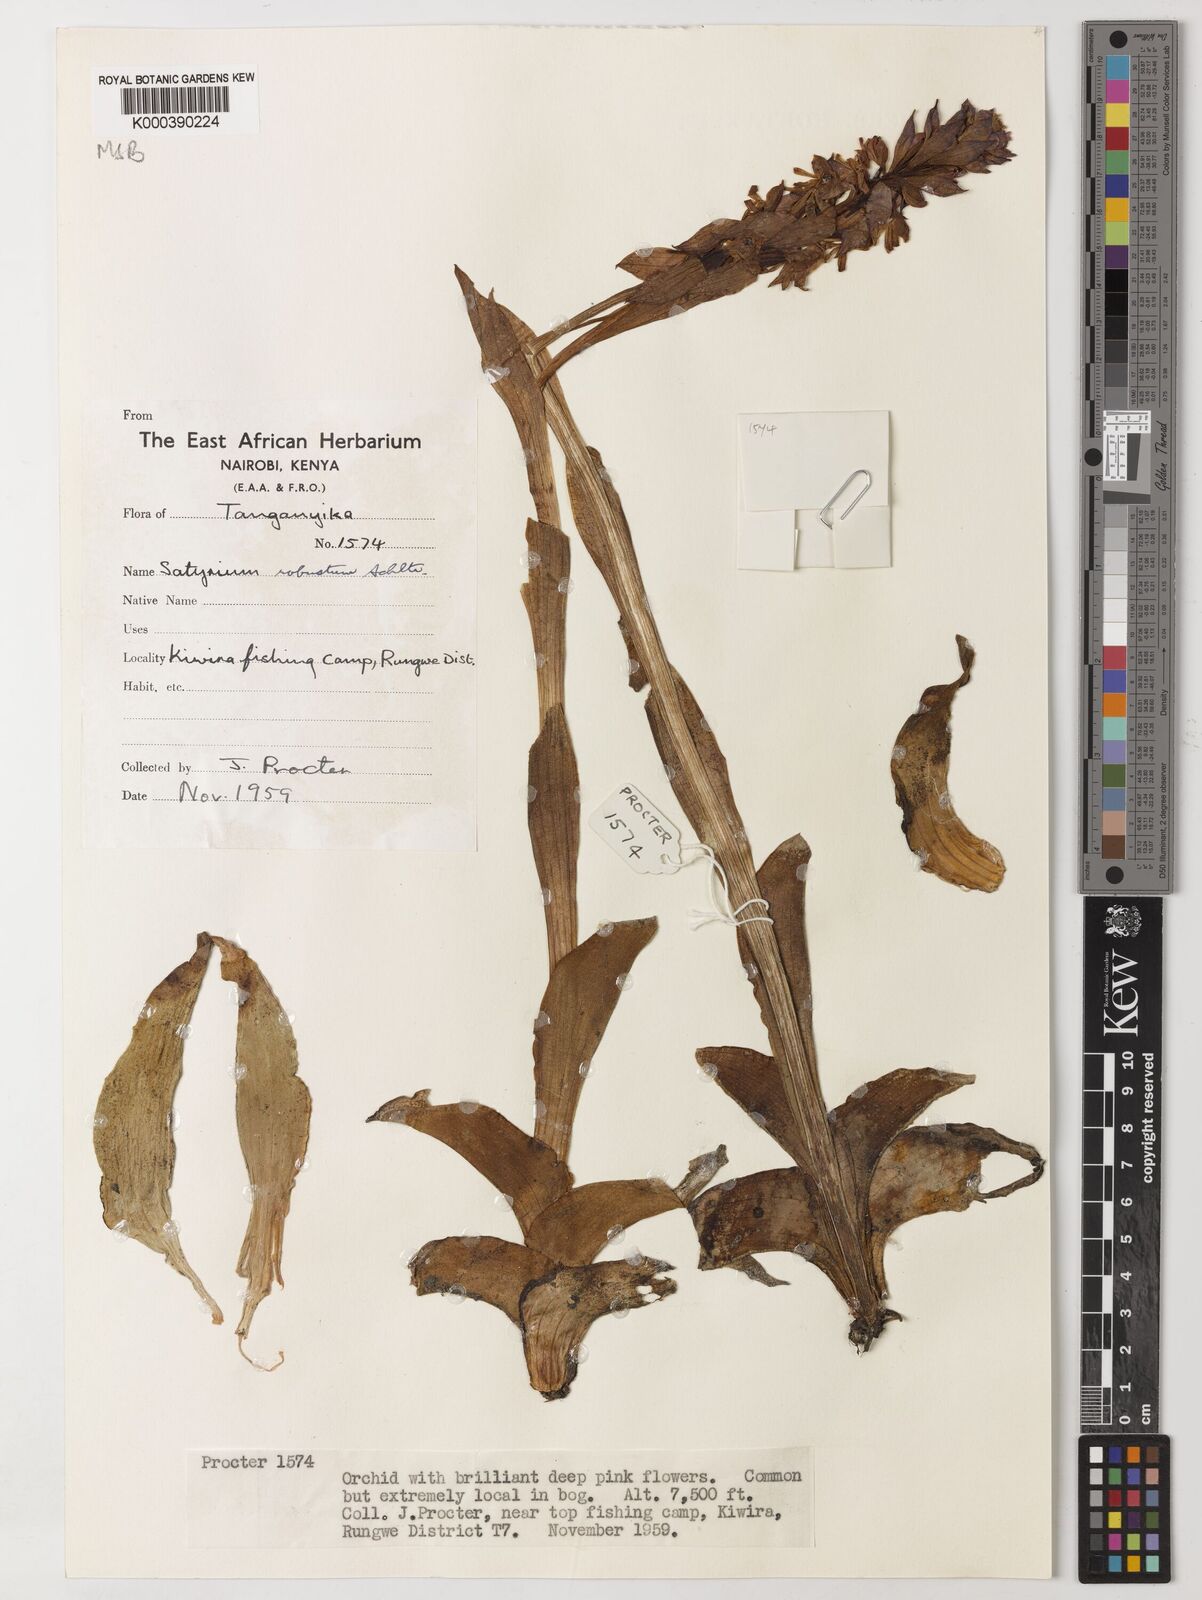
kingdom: Plantae
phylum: Tracheophyta
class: Liliopsida
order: Asparagales
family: Orchidaceae
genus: Satyrium
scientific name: Satyrium robustum
